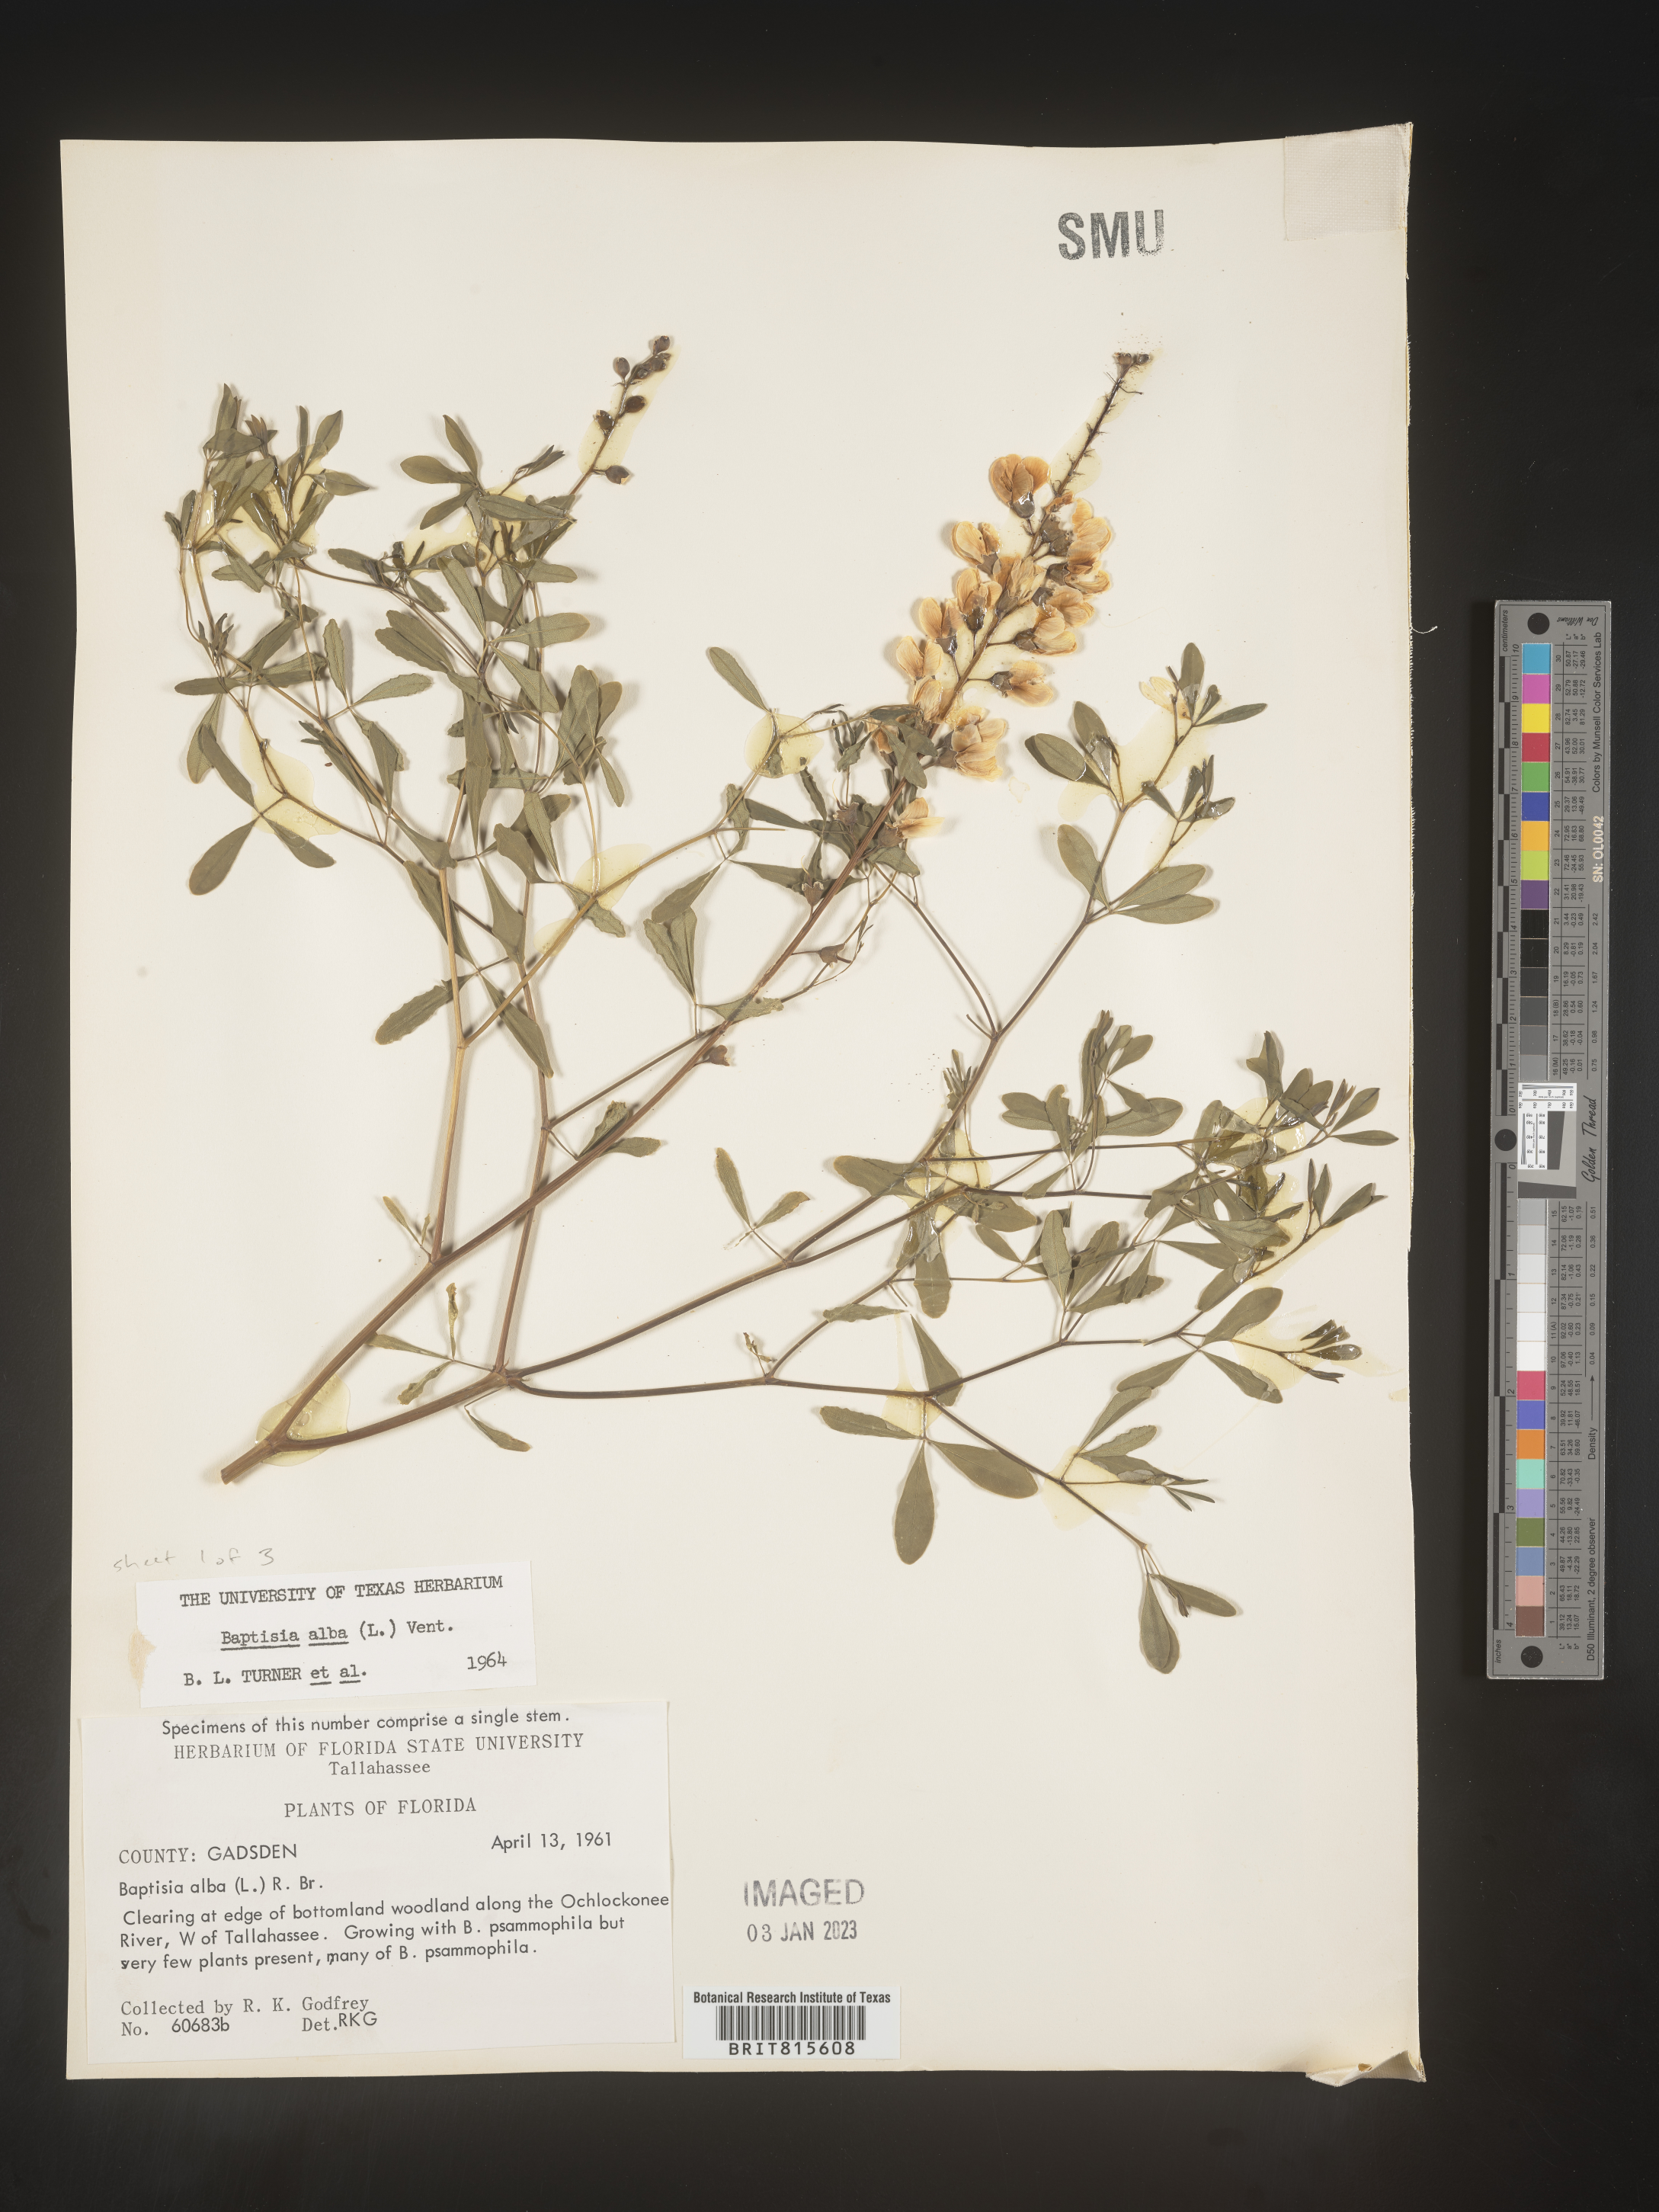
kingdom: Plantae
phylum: Tracheophyta
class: Magnoliopsida
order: Fabales
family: Fabaceae
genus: Baptisia
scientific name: Baptisia alba
